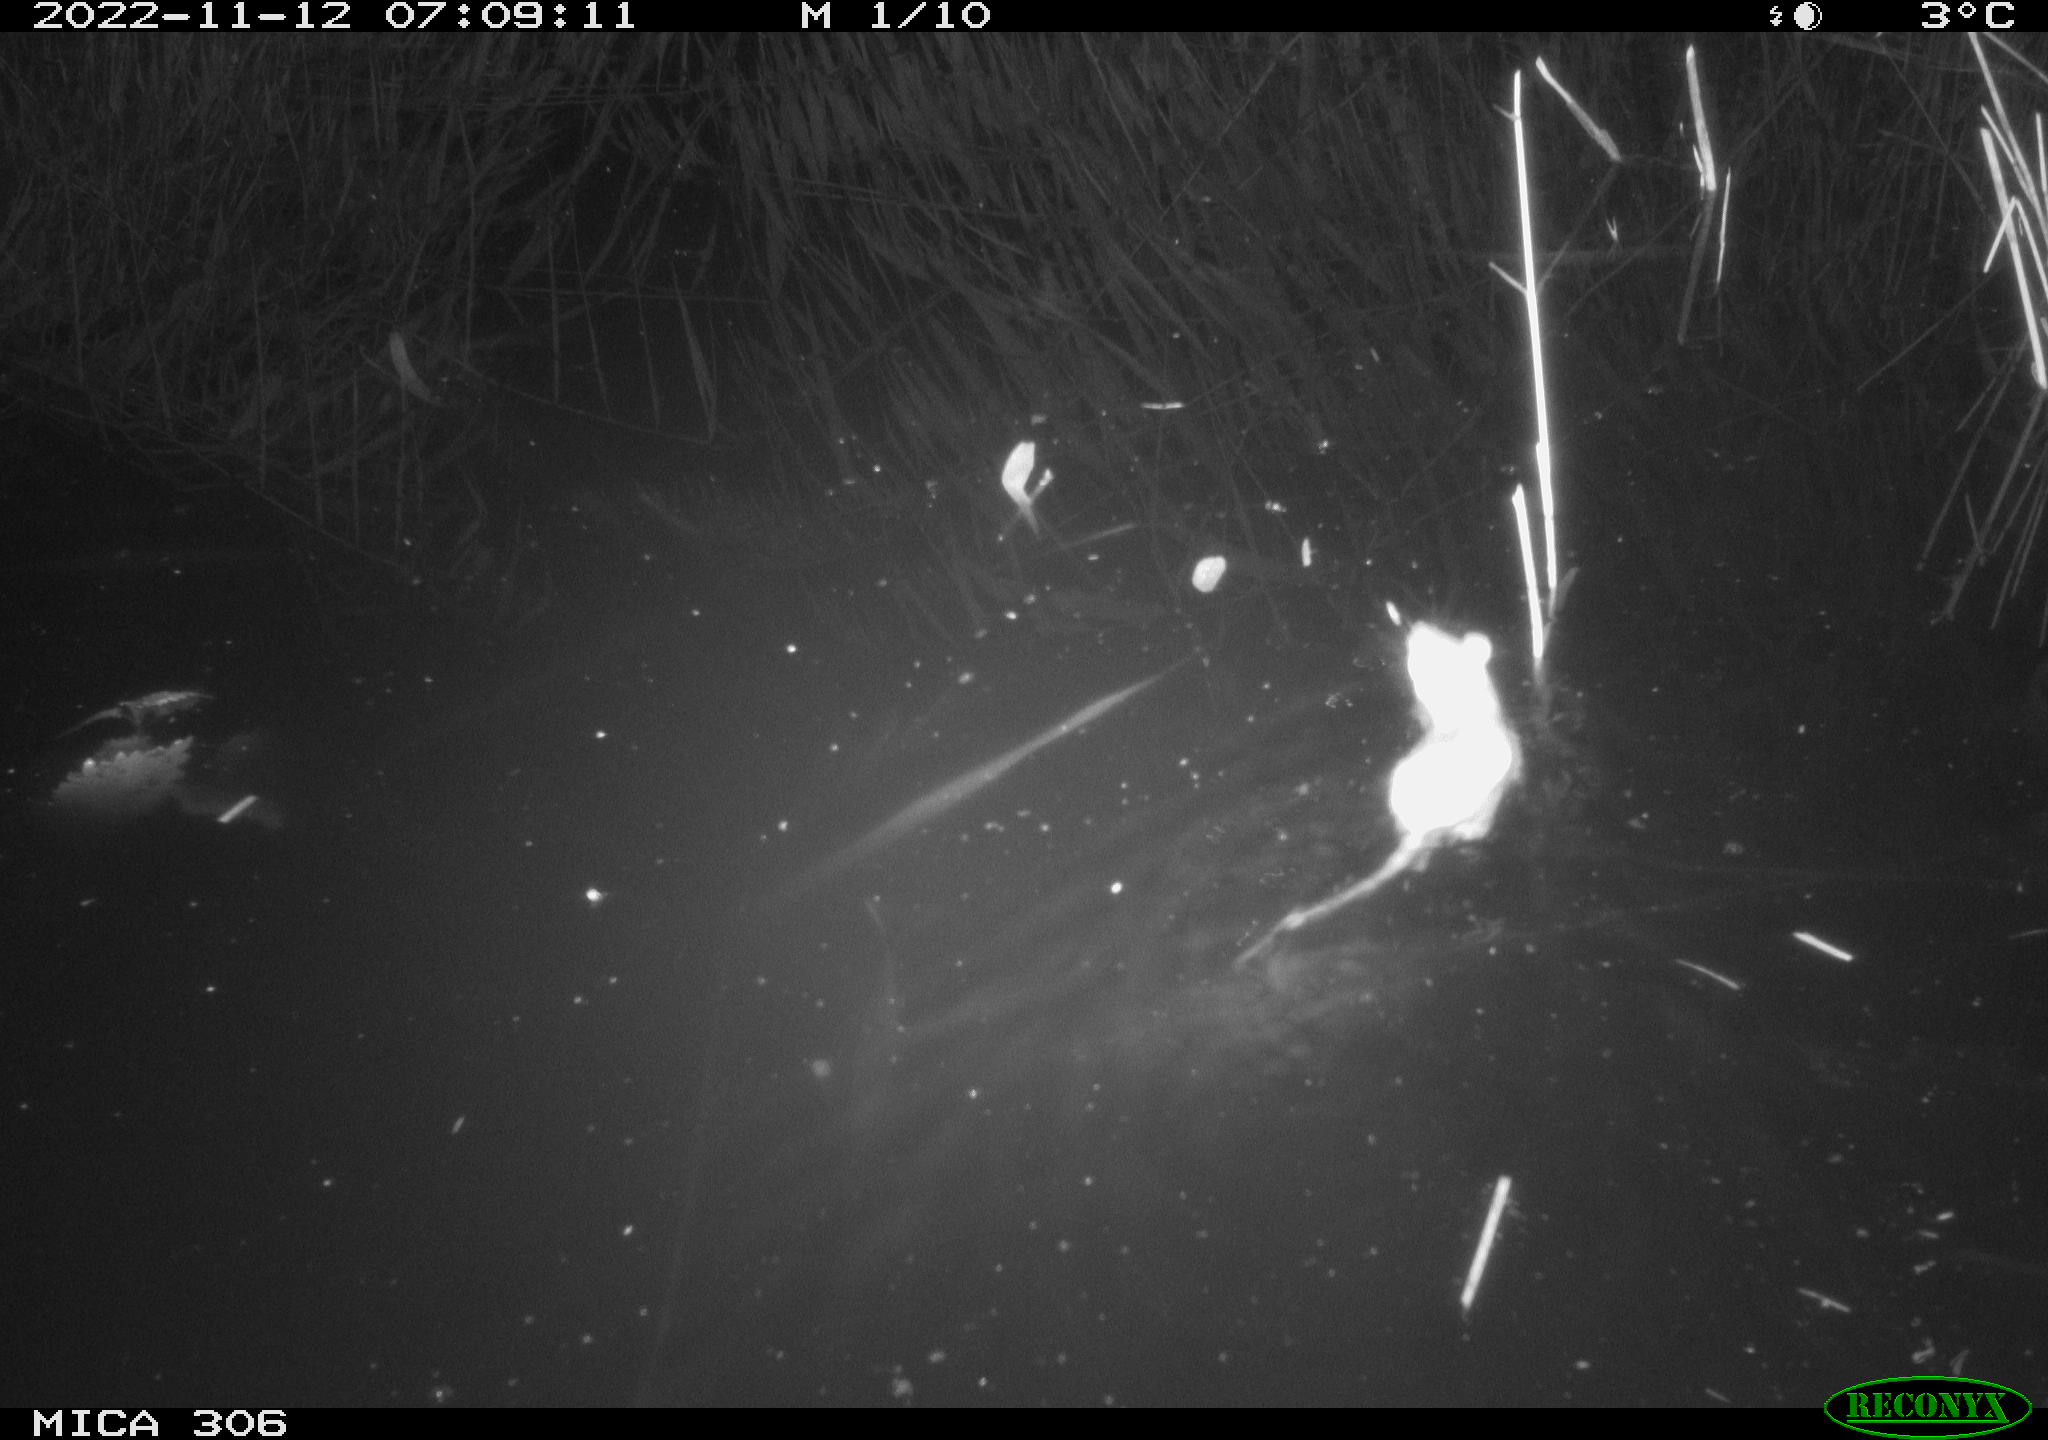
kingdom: Animalia
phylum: Chordata
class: Mammalia
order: Rodentia
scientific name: Rodentia
